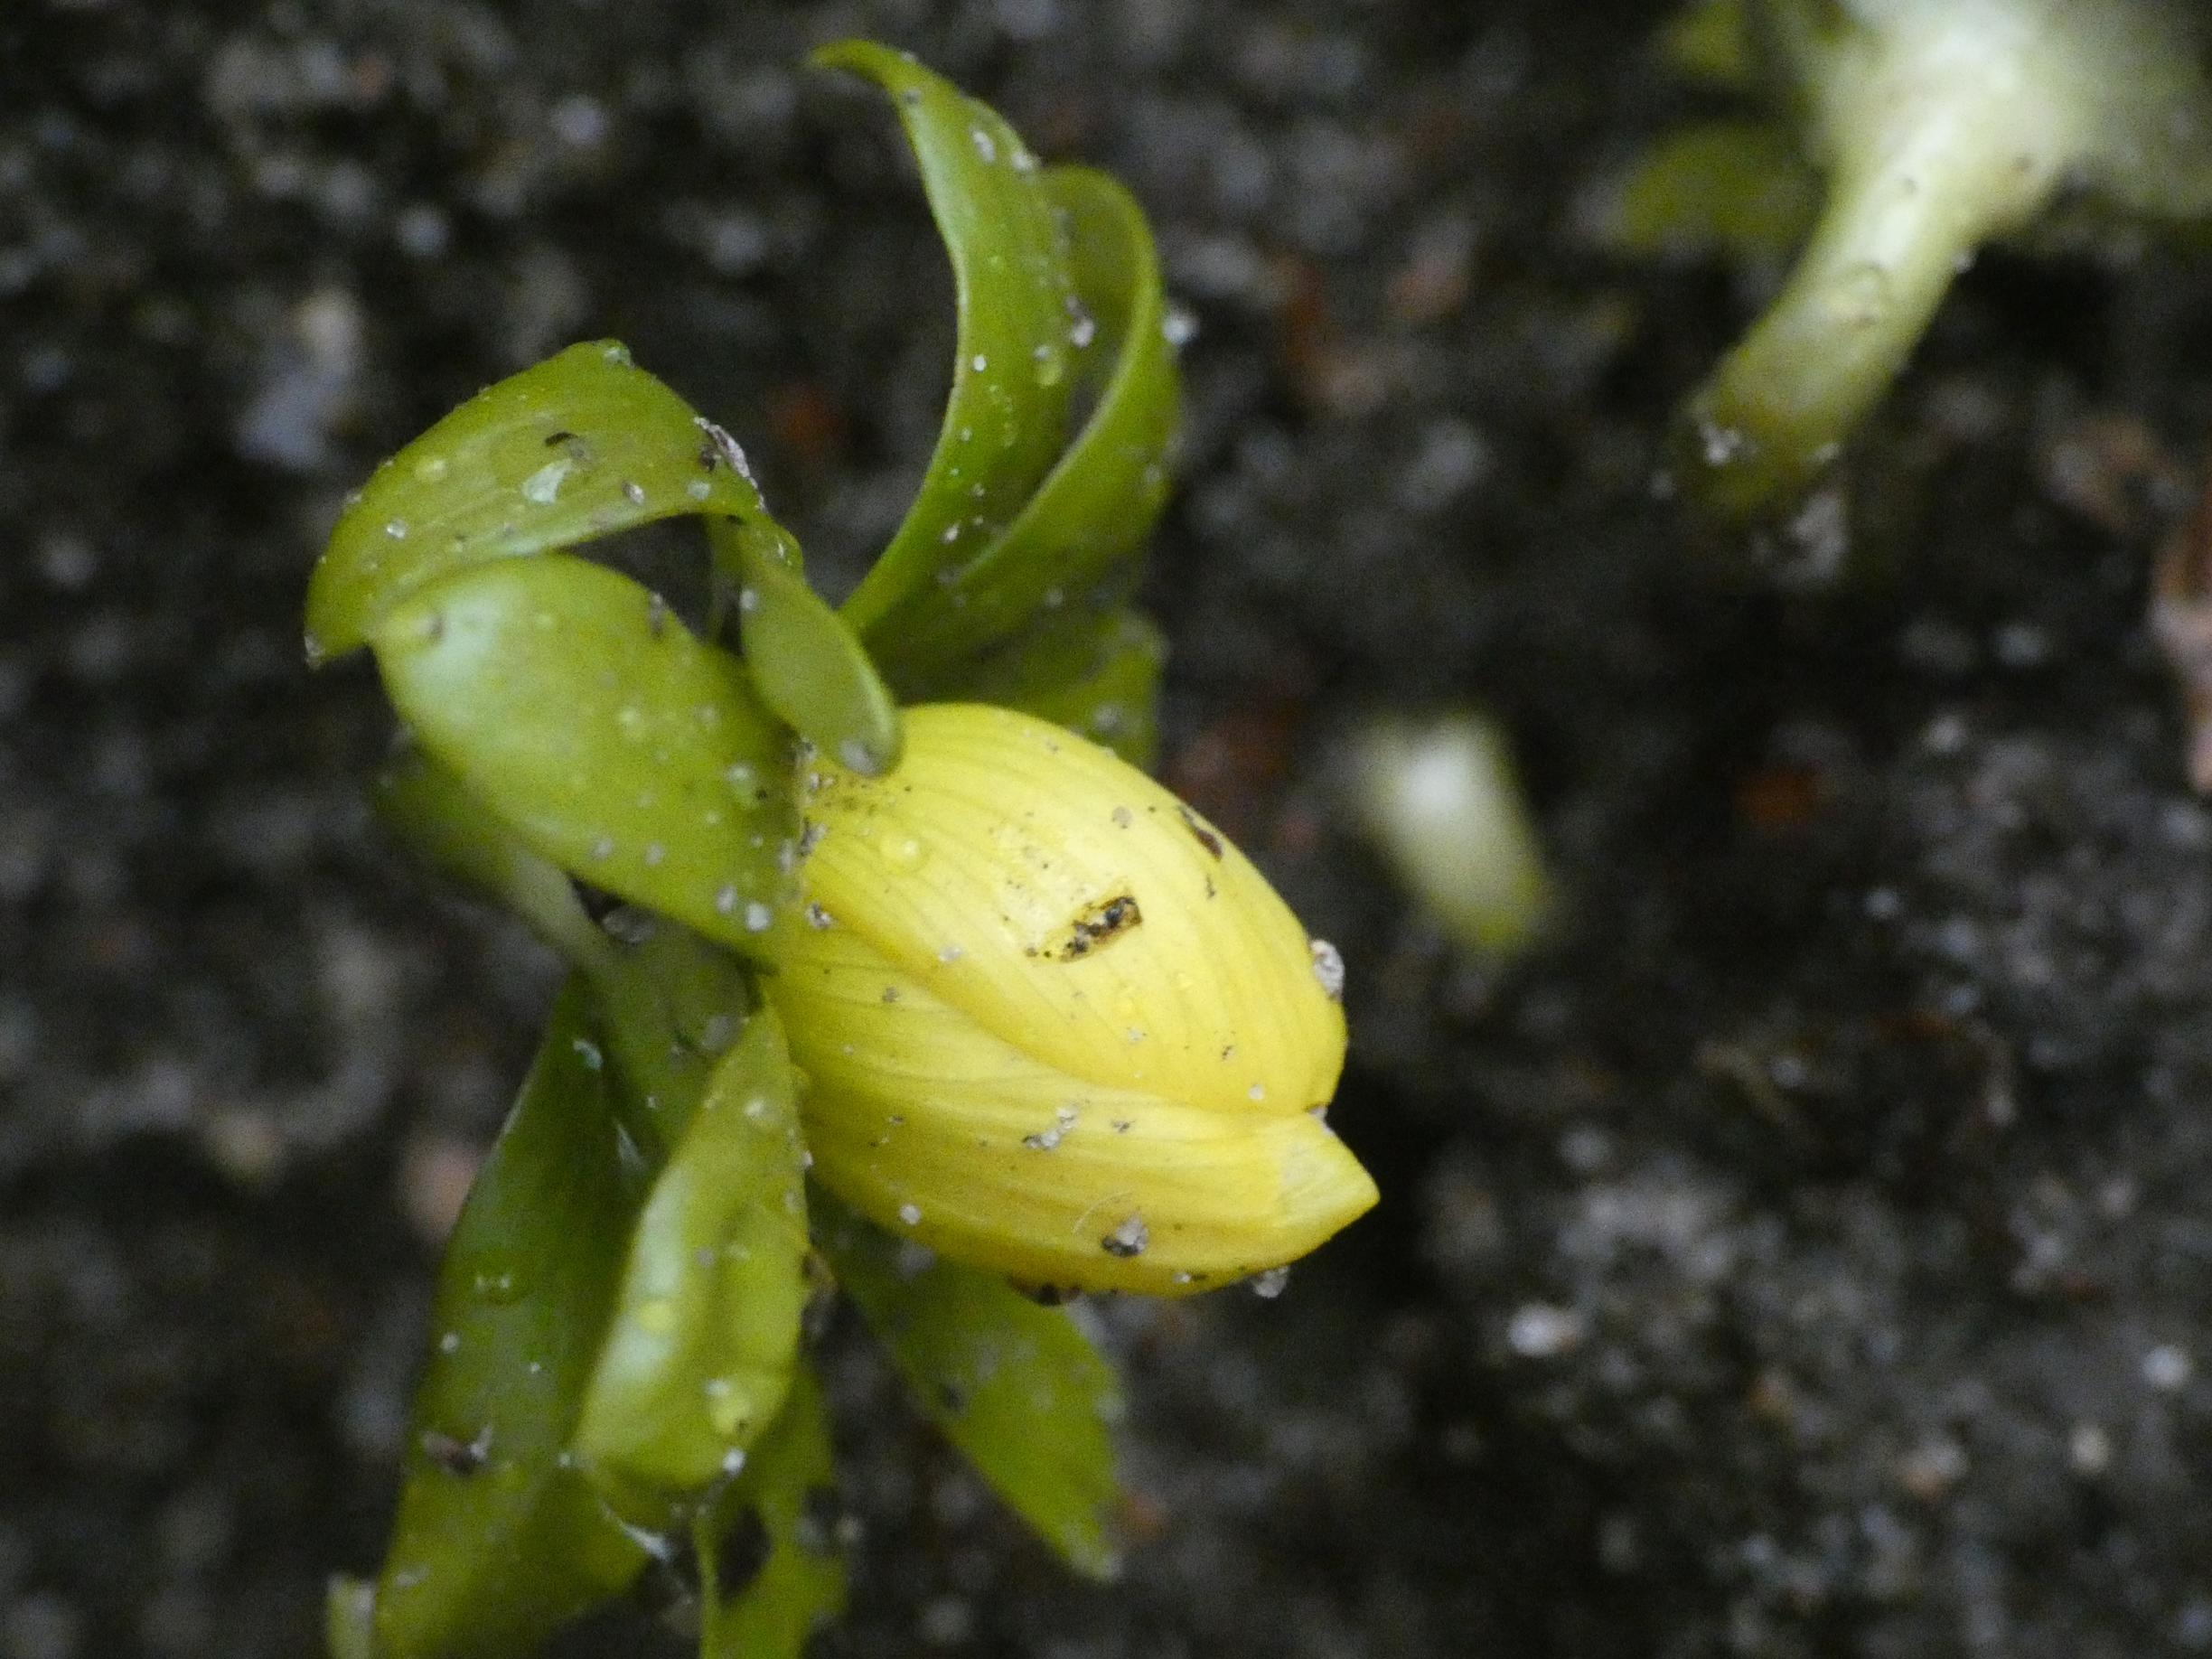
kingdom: Plantae
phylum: Tracheophyta
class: Magnoliopsida
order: Ranunculales
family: Ranunculaceae
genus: Eranthis
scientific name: Eranthis hyemalis
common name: Erantis
